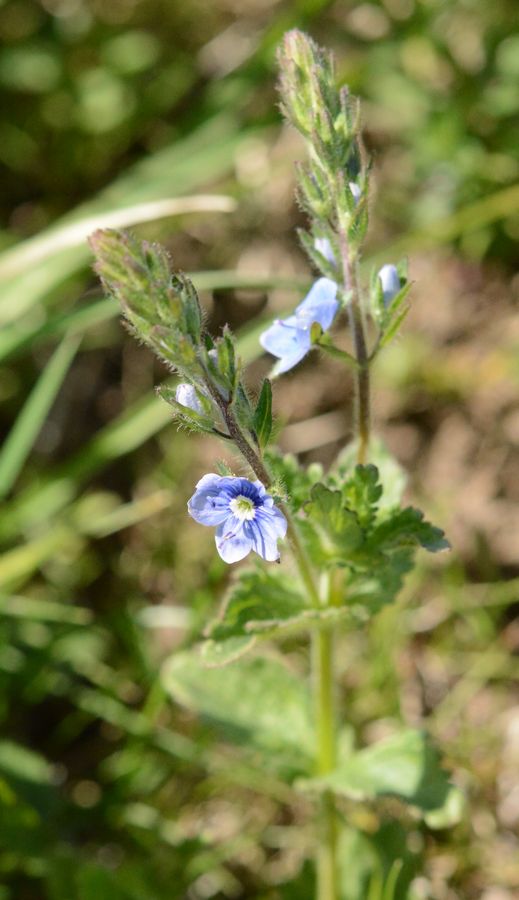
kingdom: Plantae
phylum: Tracheophyta
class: Magnoliopsida
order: Lamiales
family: Plantaginaceae
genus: Veronica
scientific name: Veronica
